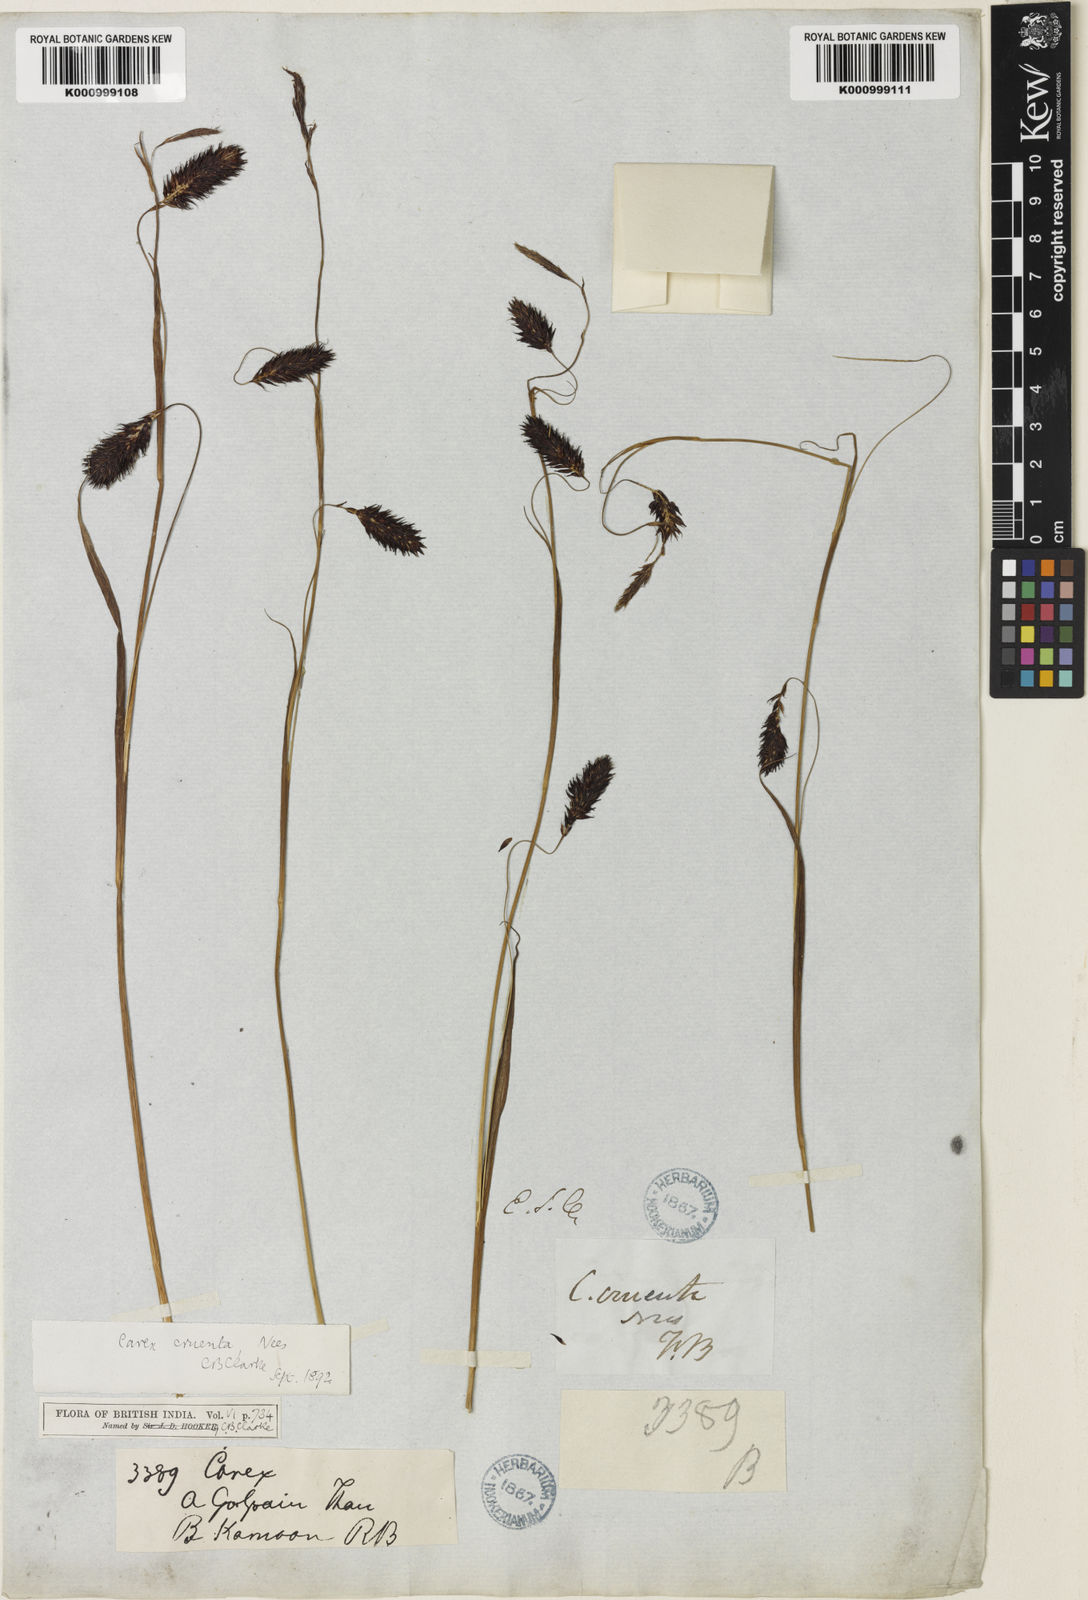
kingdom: Plantae
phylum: Tracheophyta
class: Liliopsida
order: Poales
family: Cyperaceae
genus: Carex
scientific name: Carex cruenta
